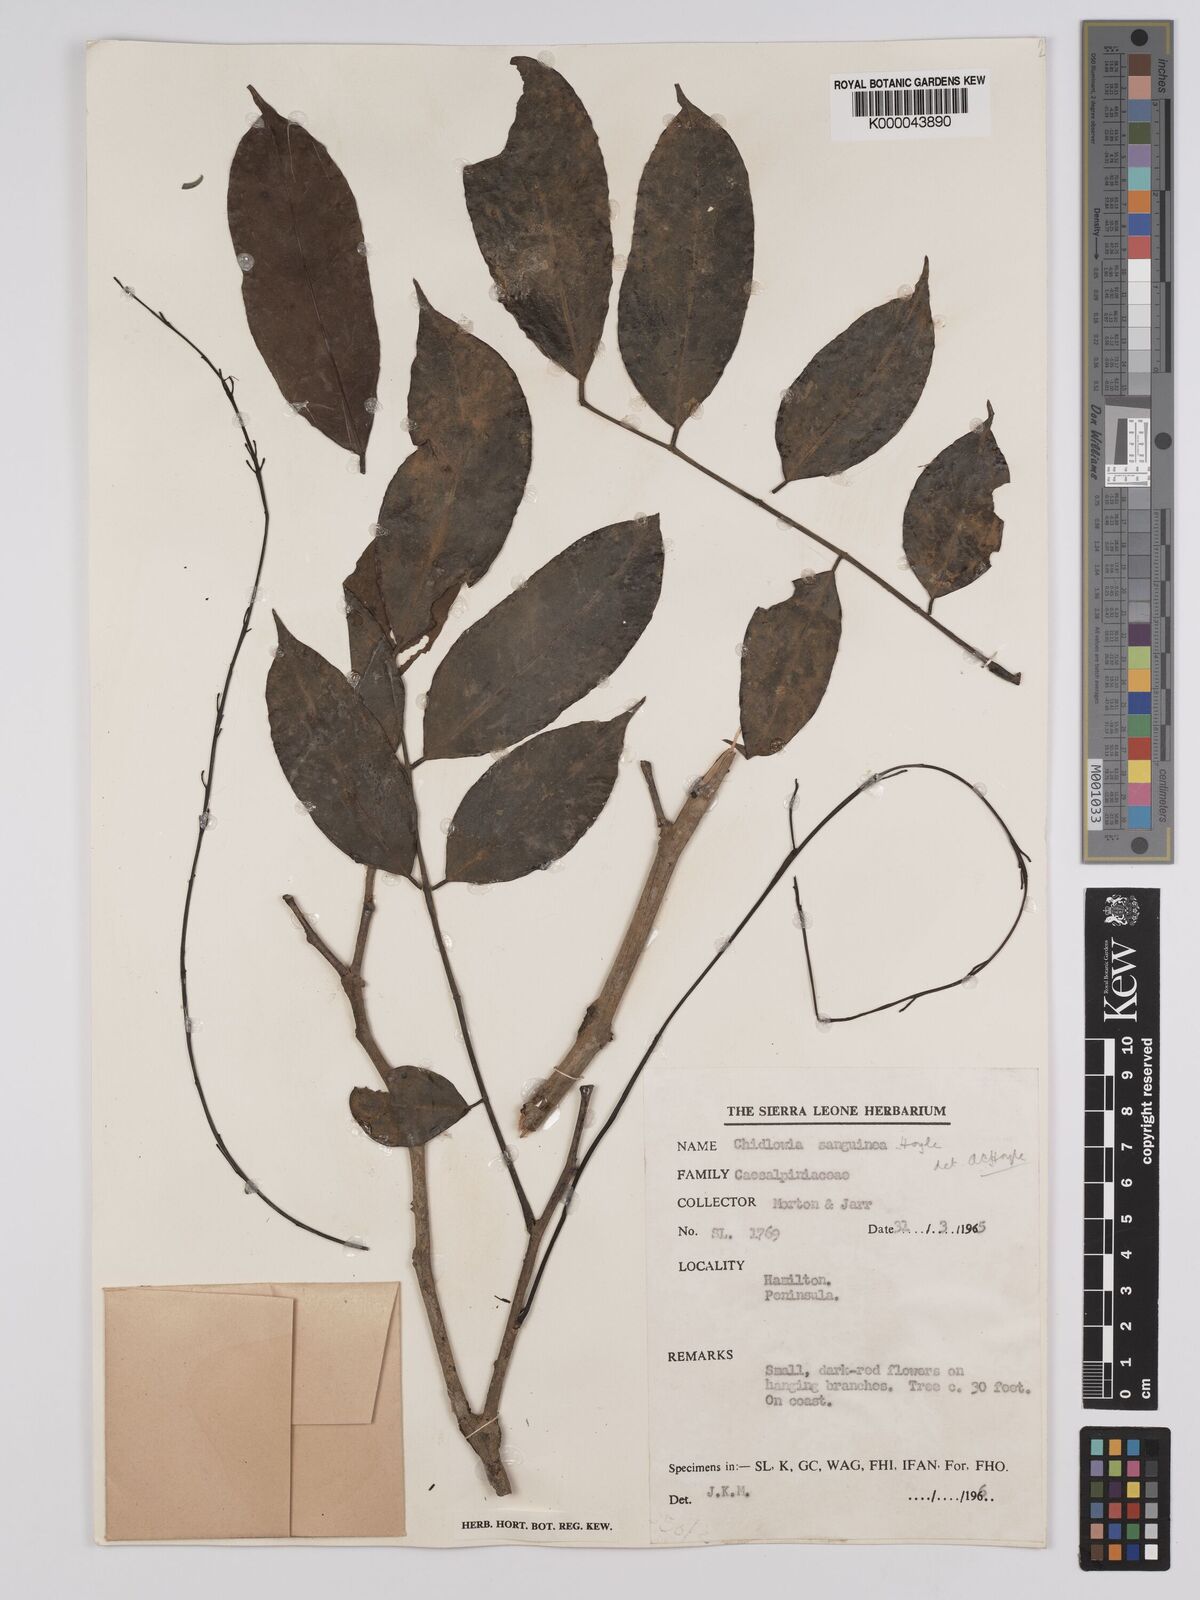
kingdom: Plantae
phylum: Tracheophyta
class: Magnoliopsida
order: Fabales
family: Fabaceae
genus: Chidlowia
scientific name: Chidlowia sanguinea
